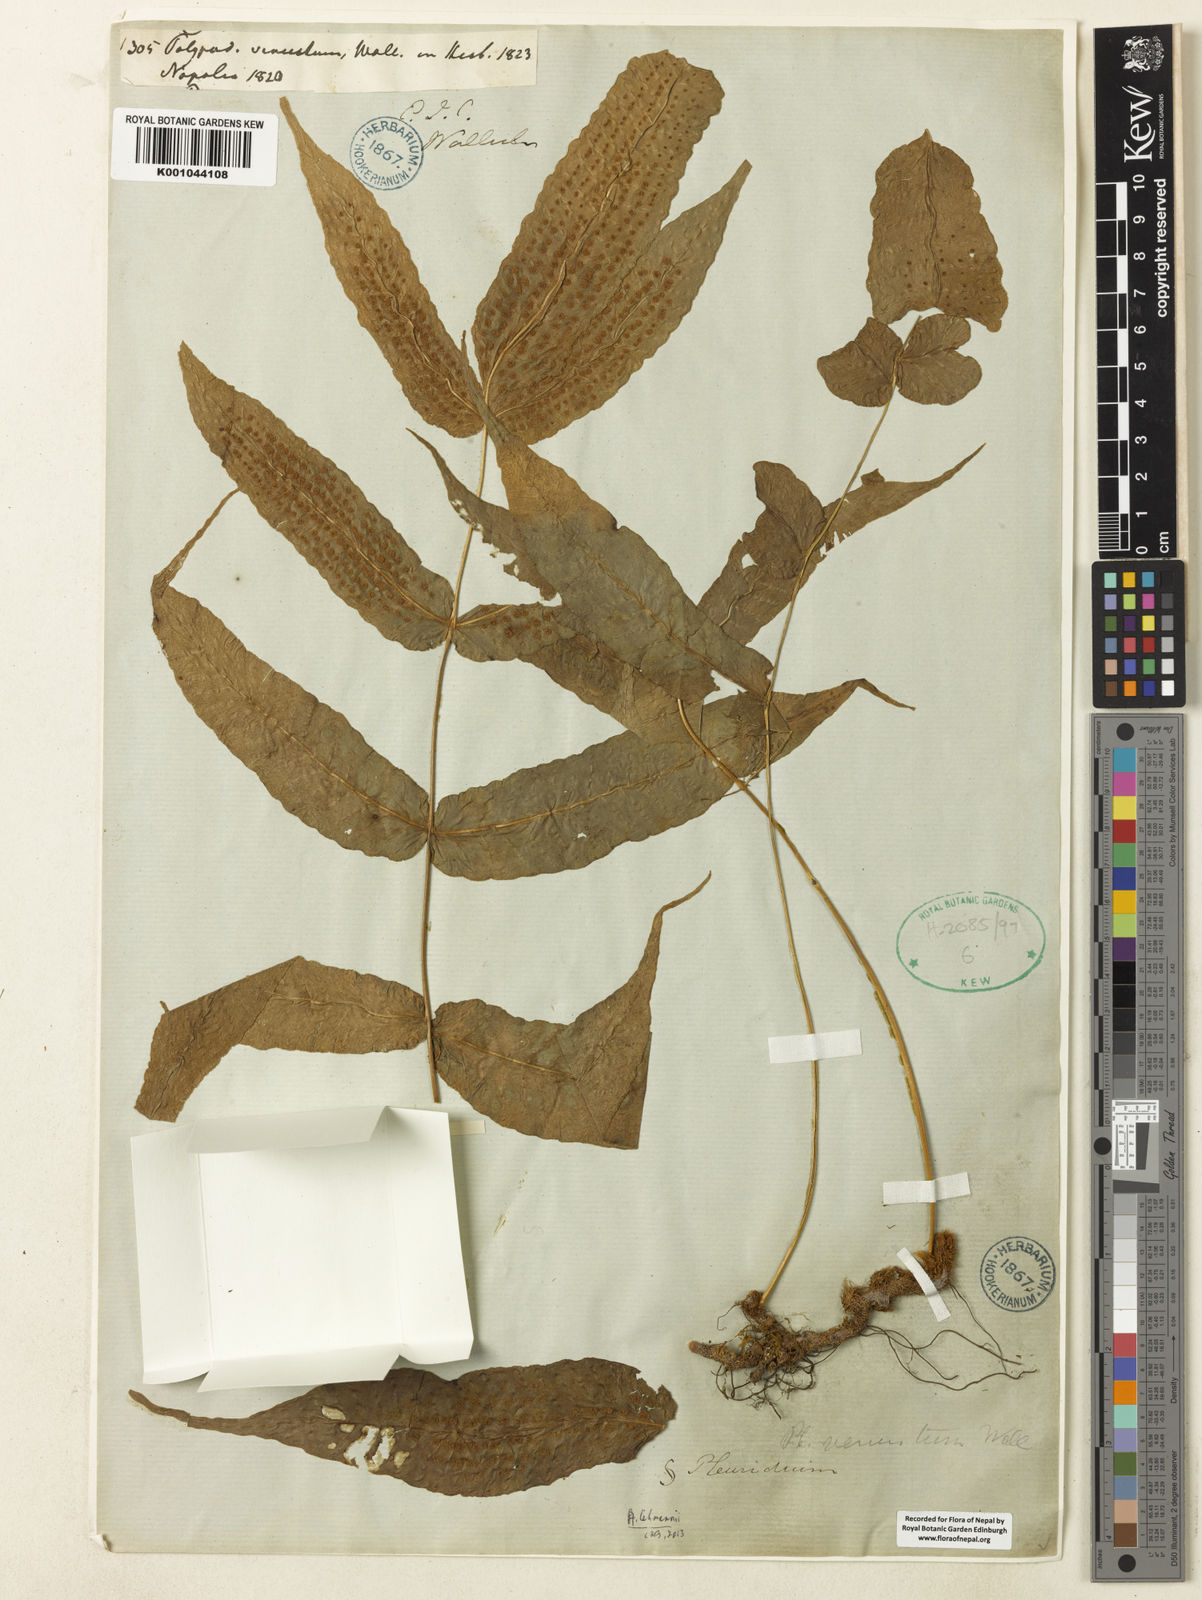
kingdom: Plantae
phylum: Tracheophyta
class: Polypodiopsida
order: Polypodiales
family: Polypodiaceae
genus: Selliguea
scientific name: Selliguea tomentosa
